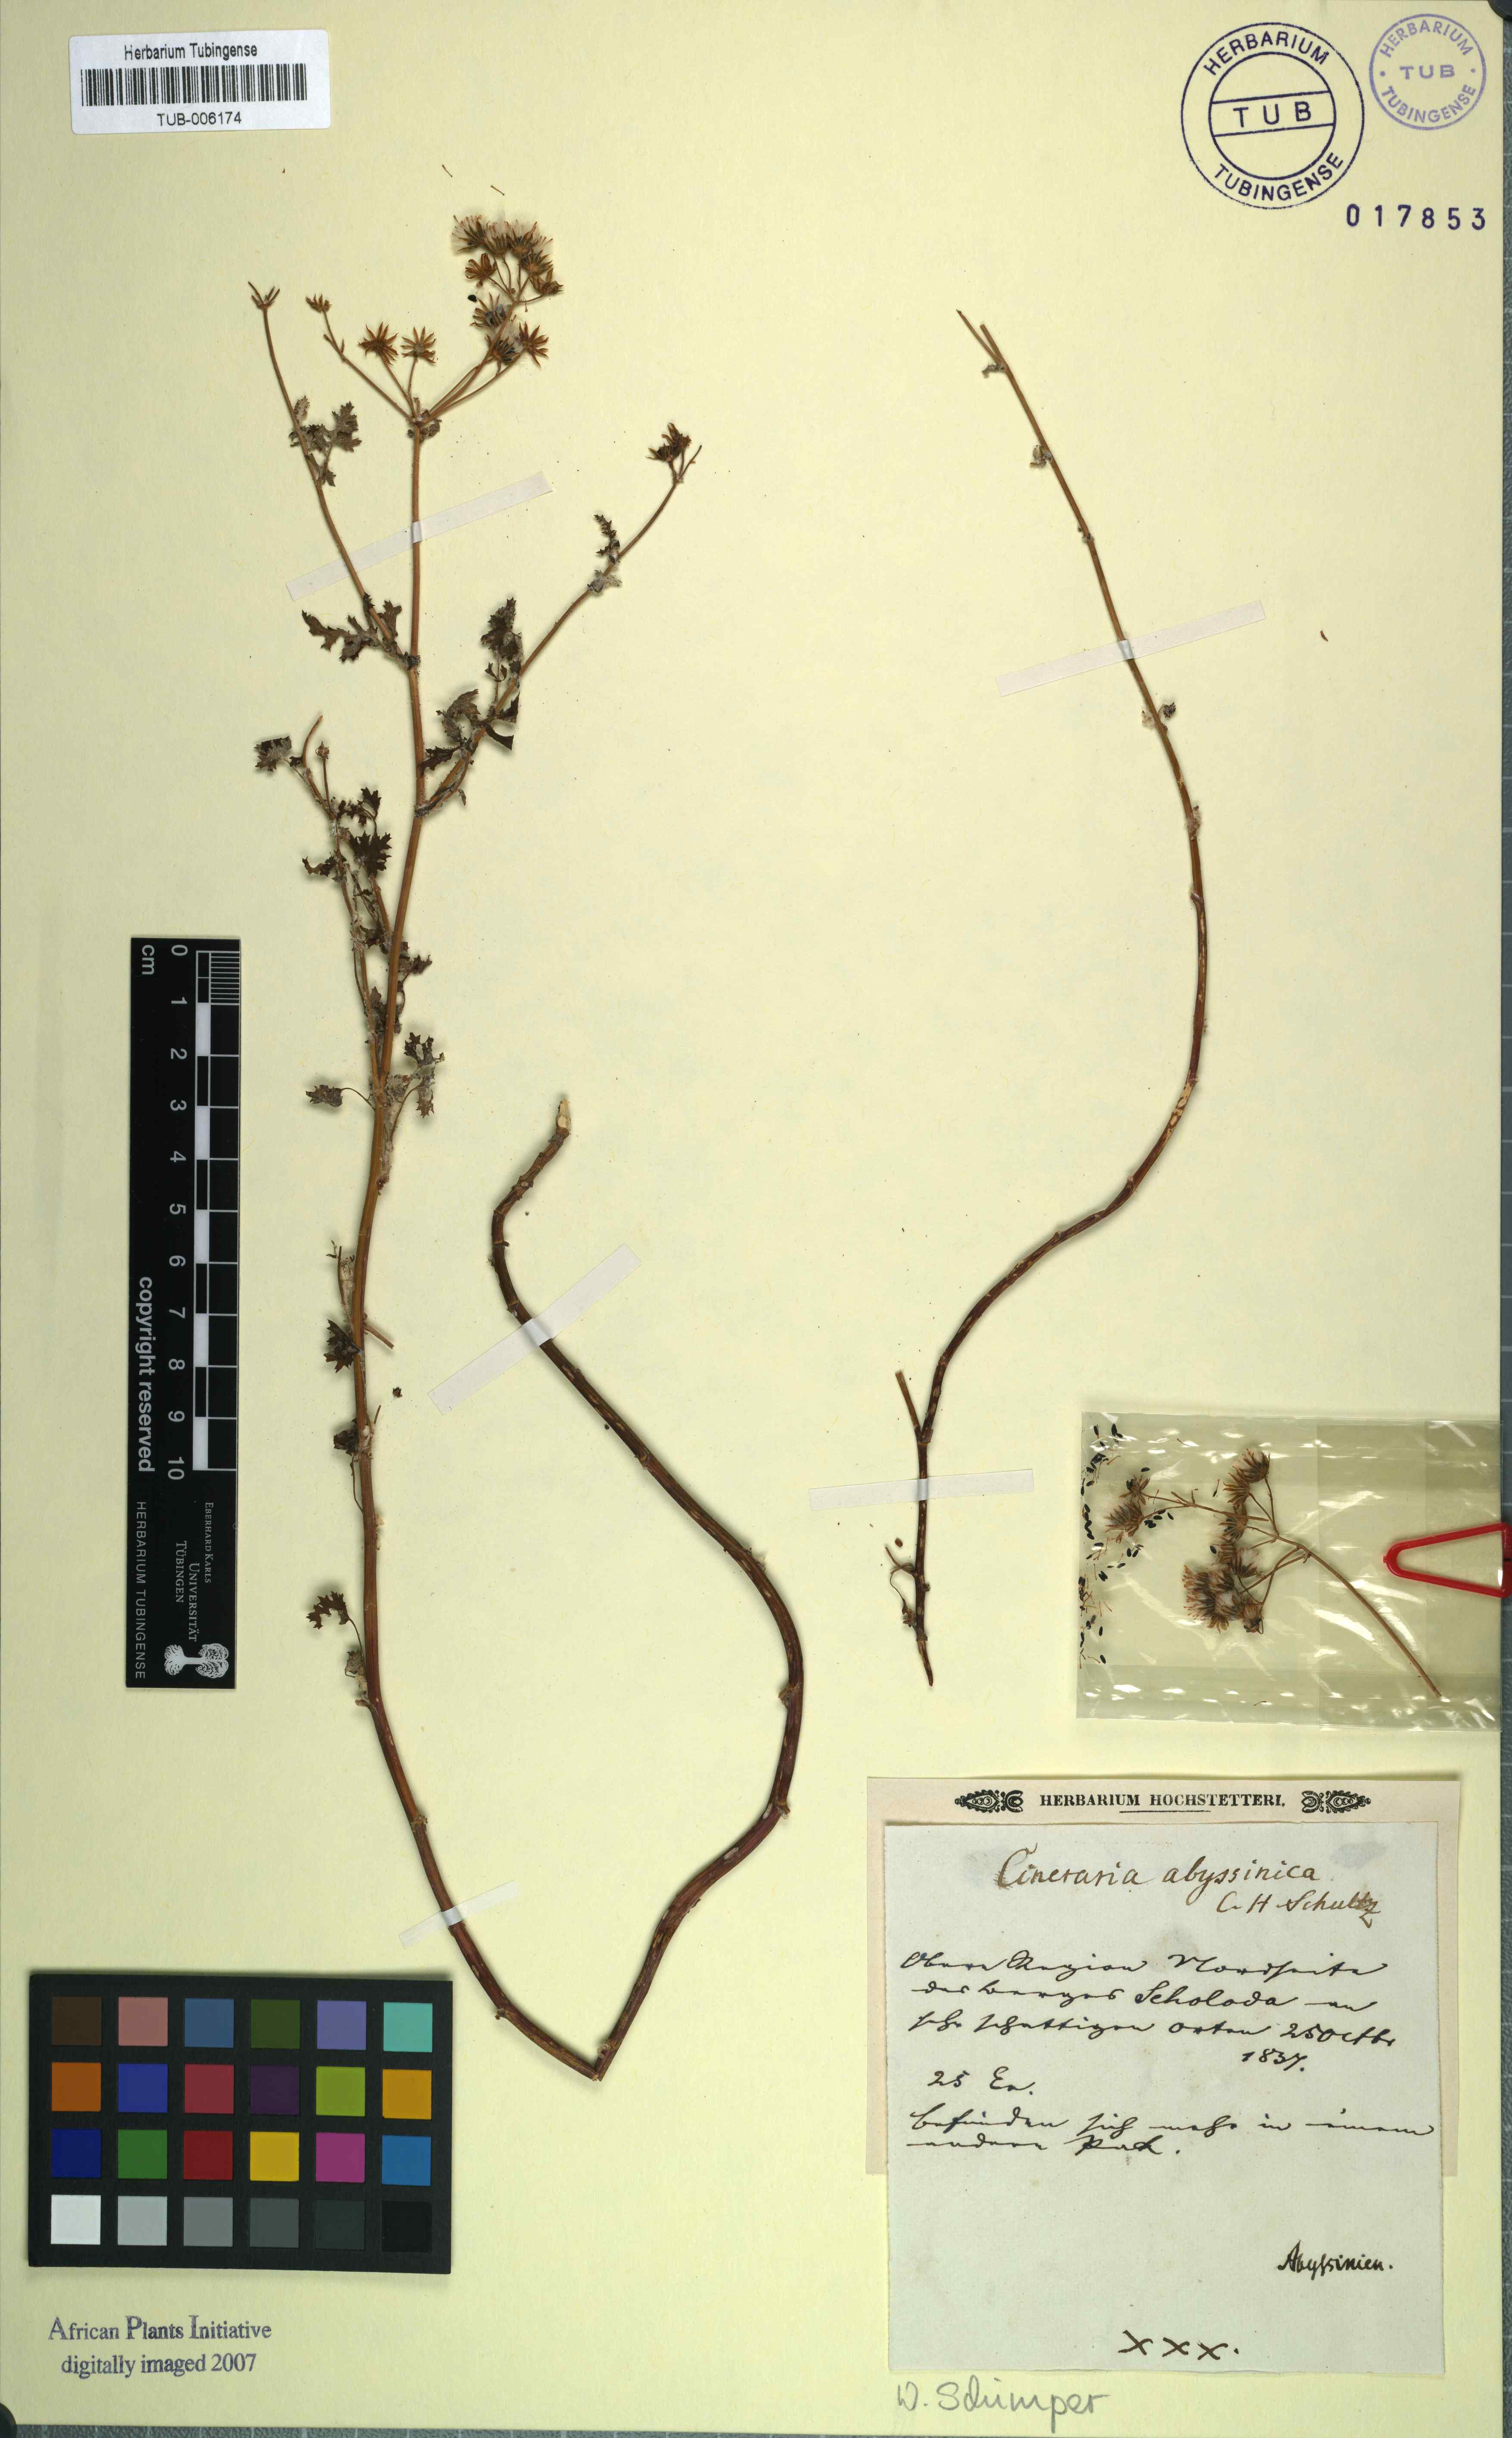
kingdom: Plantae
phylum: Tracheophyta
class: Magnoliopsida
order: Asterales
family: Asteraceae
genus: Cineraria
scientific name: Cineraria abyssinica
